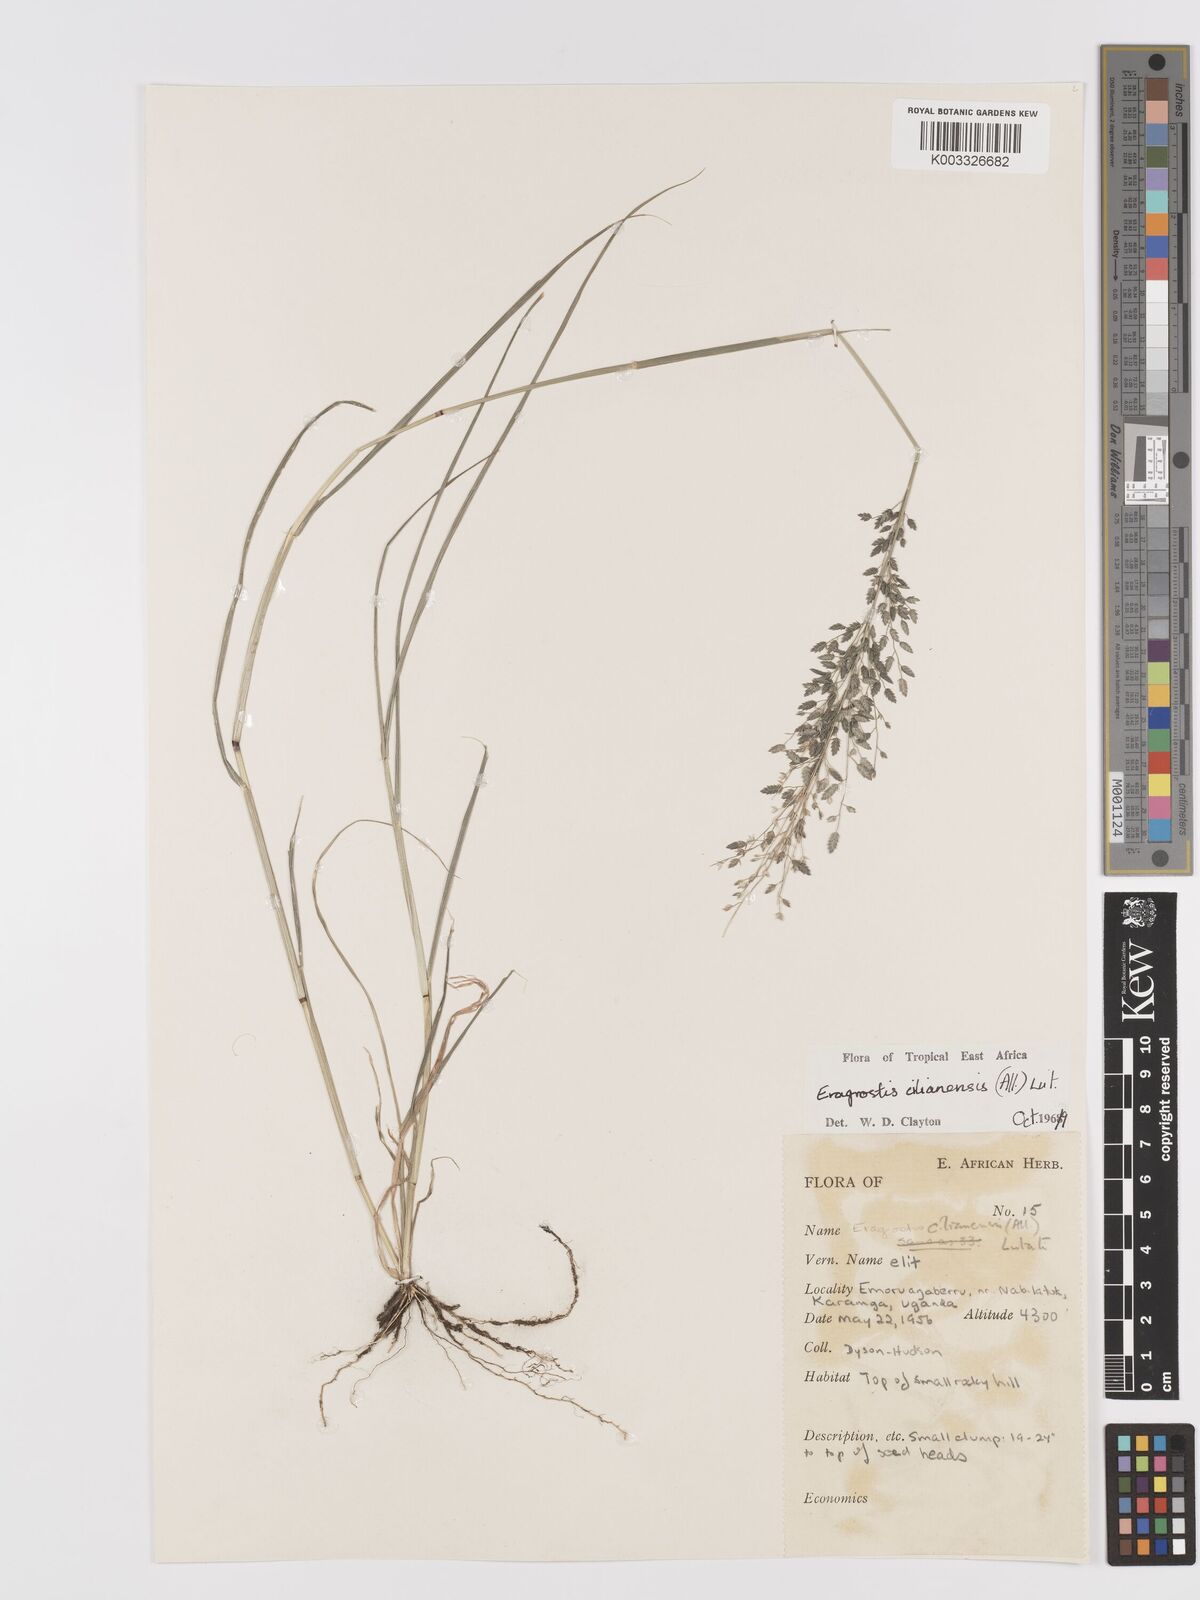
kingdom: Plantae
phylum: Tracheophyta
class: Liliopsida
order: Poales
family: Poaceae
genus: Eragrostis
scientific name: Eragrostis cilianensis
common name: Stinkgrass
